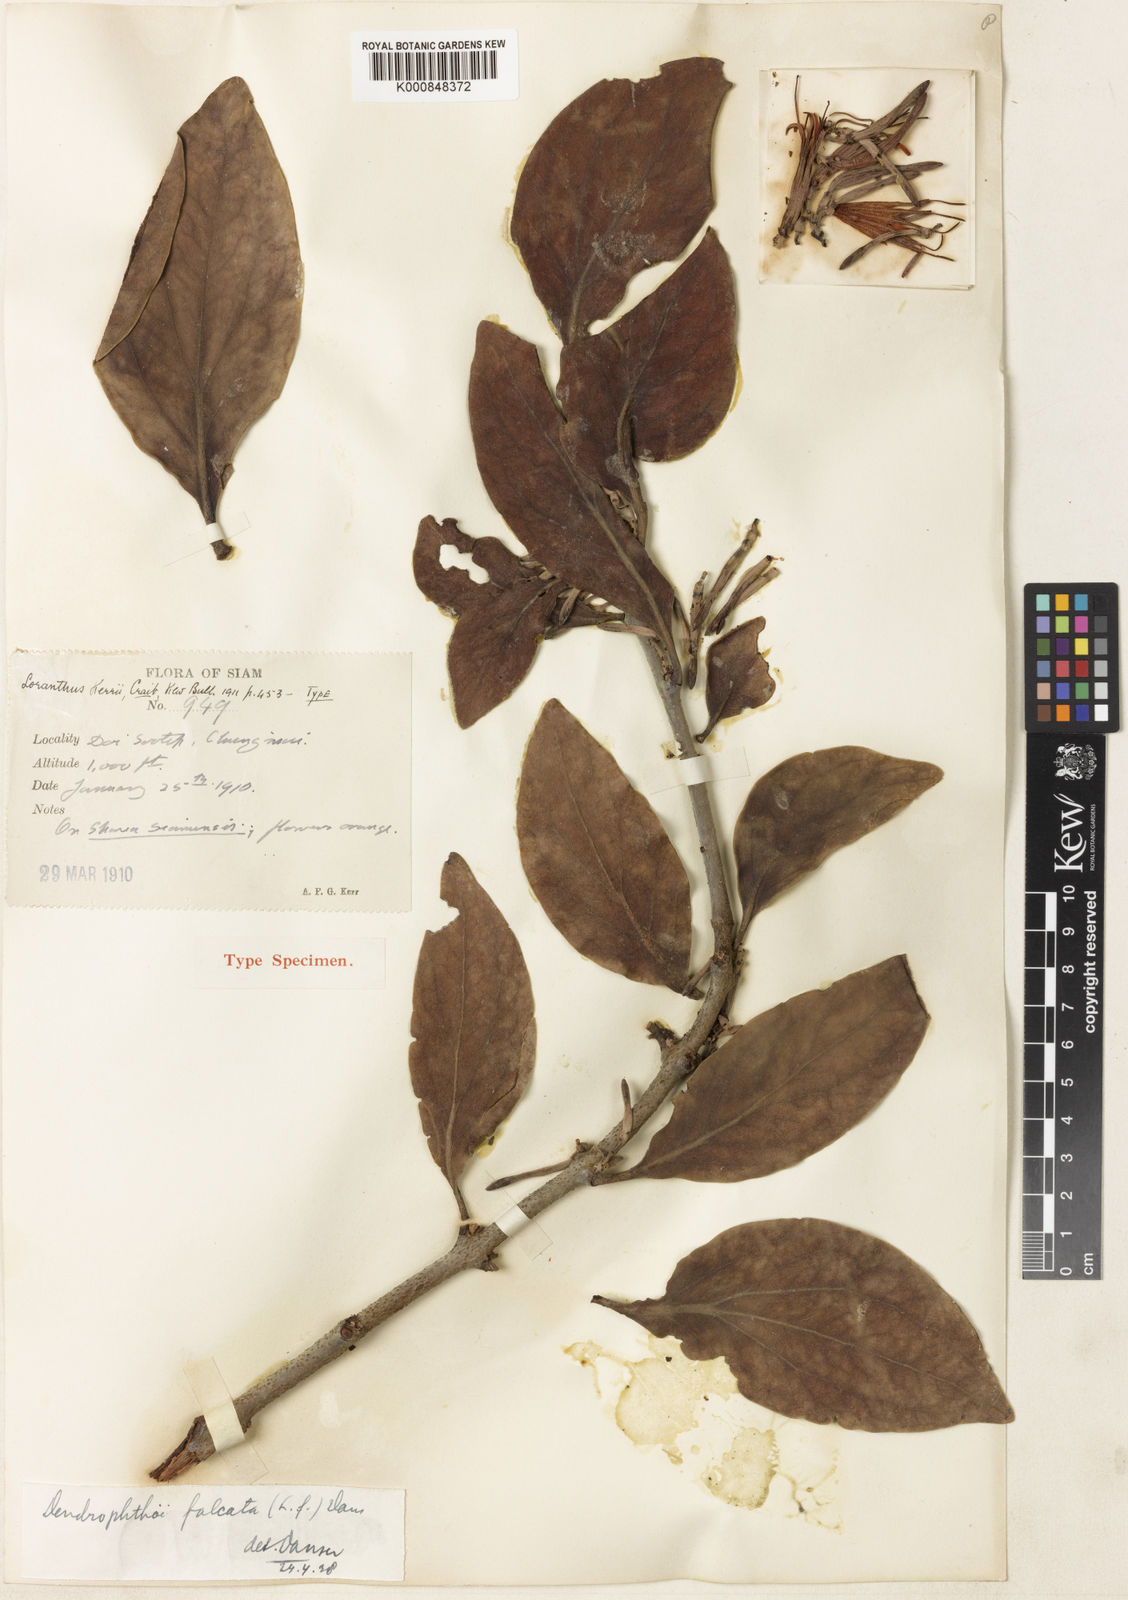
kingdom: Plantae
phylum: Tracheophyta
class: Magnoliopsida
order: Santalales
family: Loranthaceae
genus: Dendrophthoe
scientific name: Dendrophthoe
